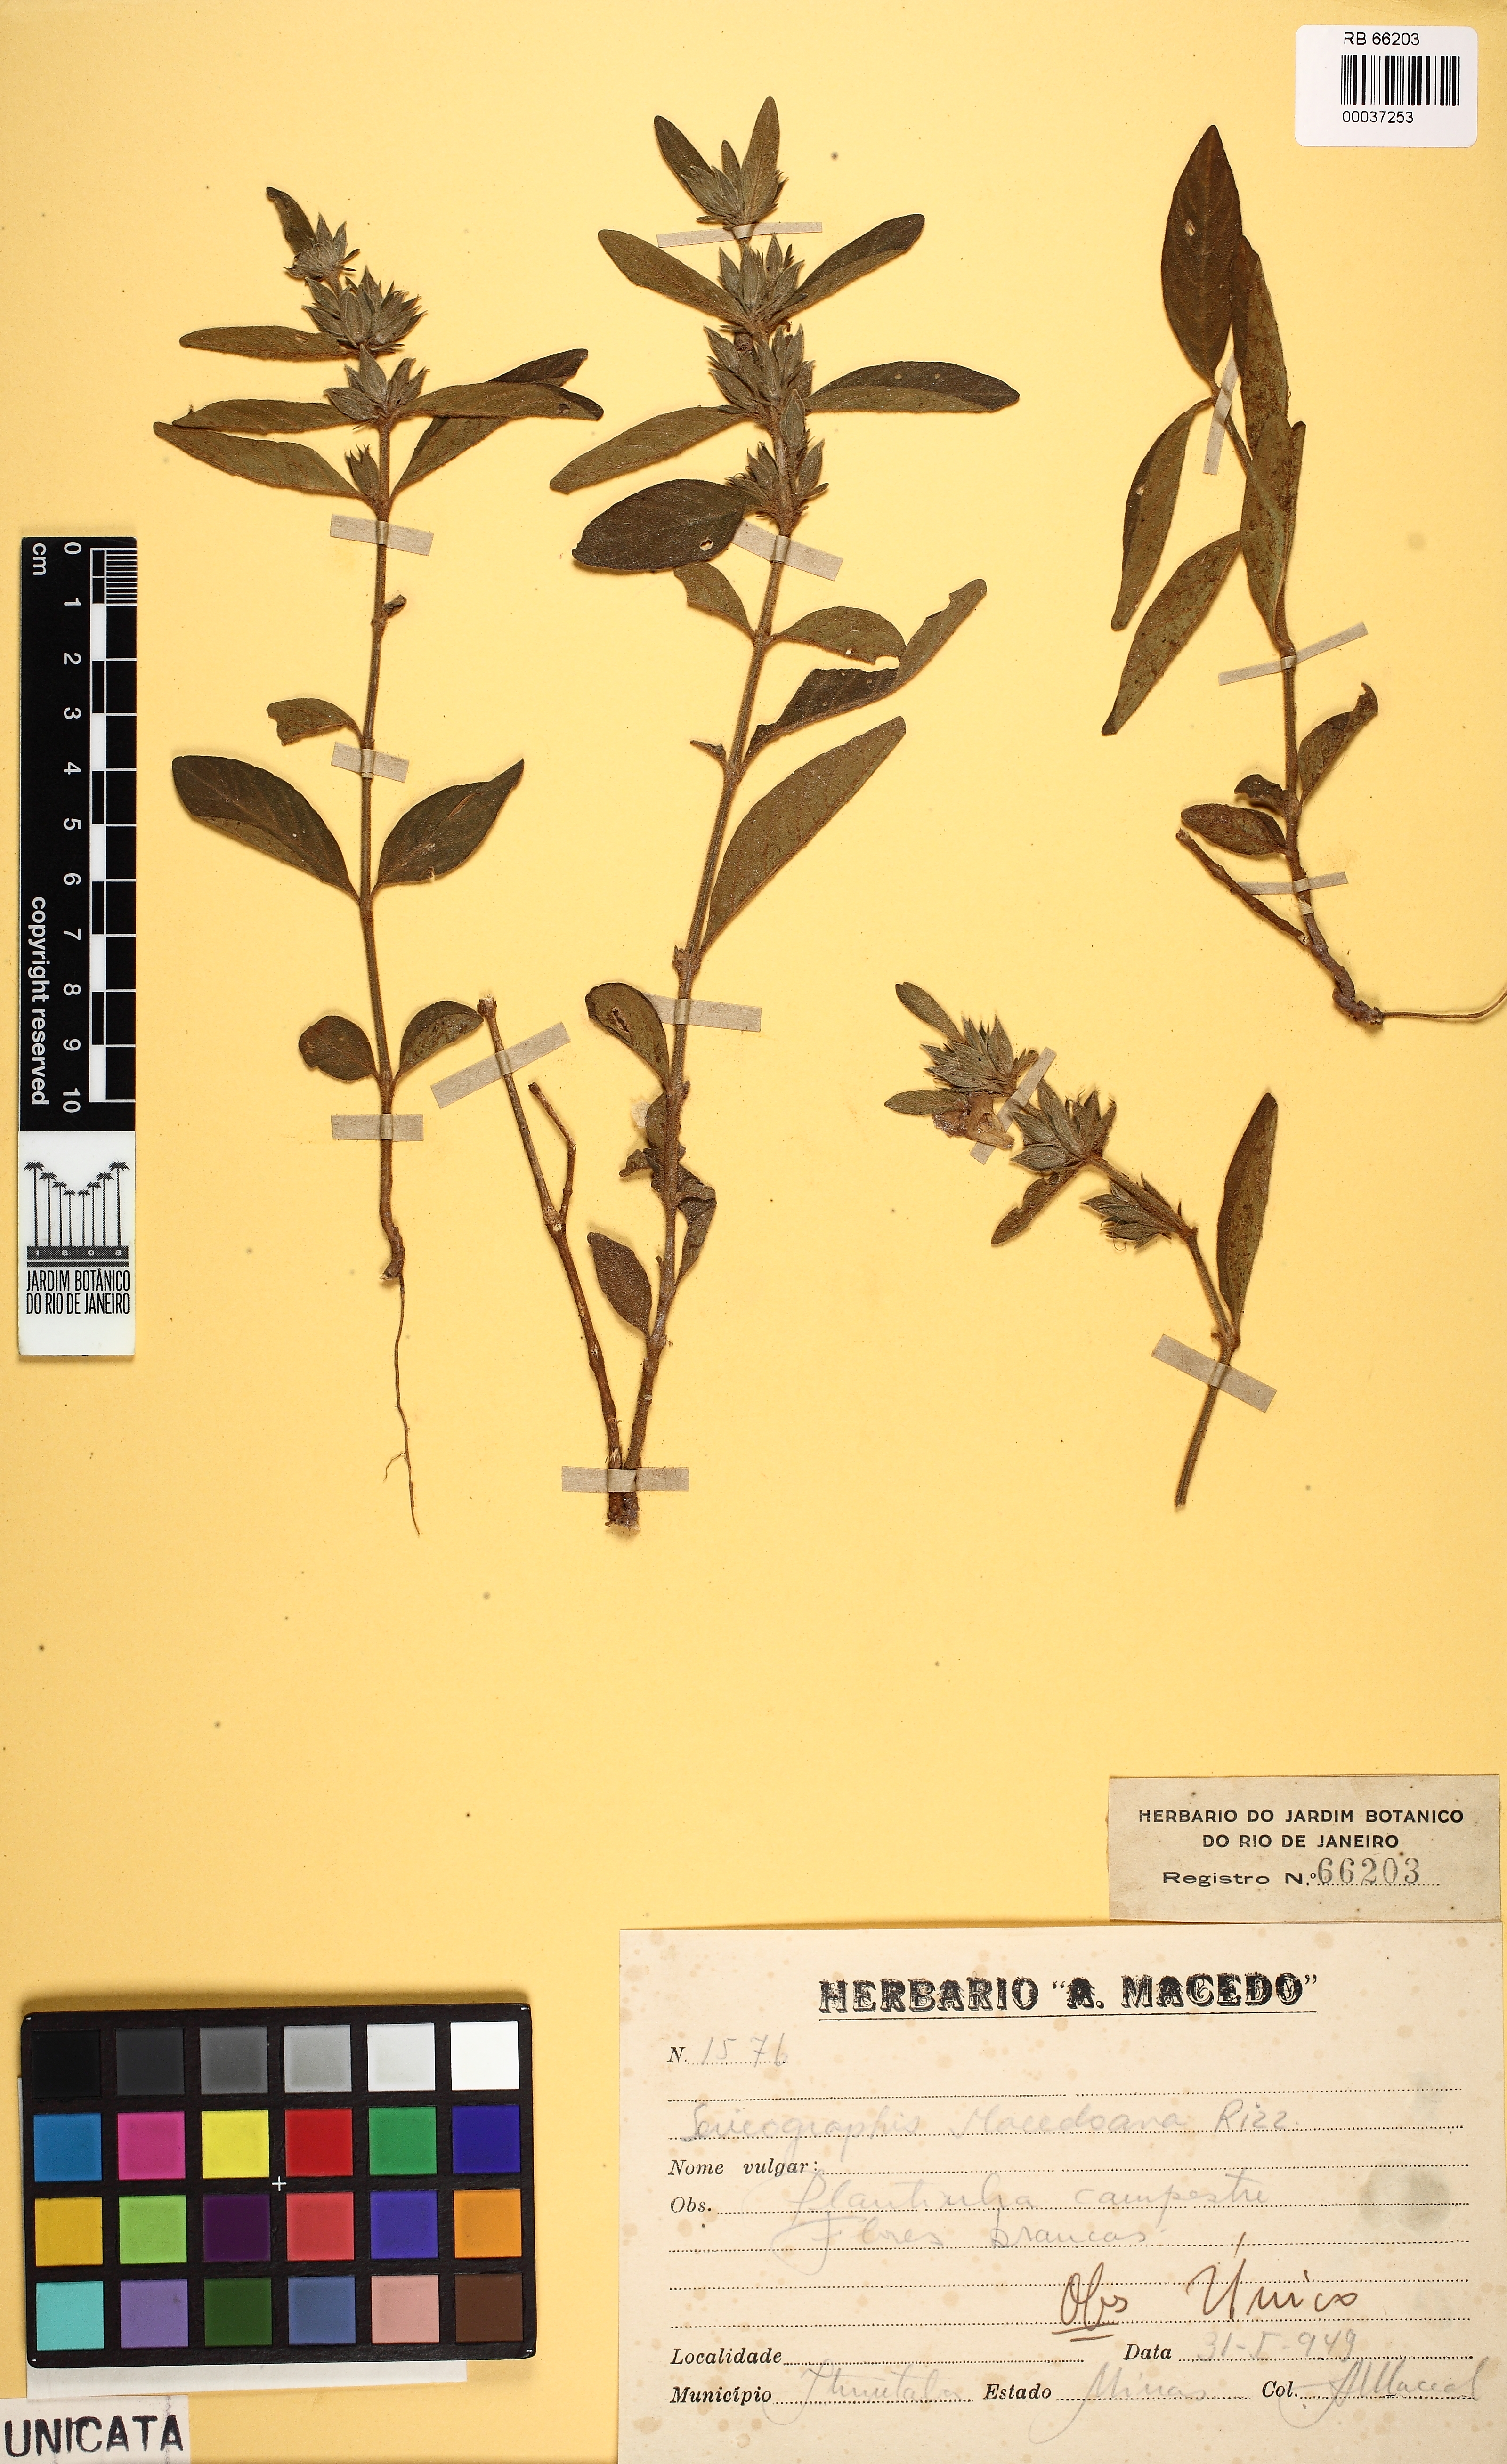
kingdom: Plantae
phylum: Tracheophyta
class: Magnoliopsida
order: Lamiales
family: Acanthaceae
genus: Justicia
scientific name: Justicia phyllocalyx
